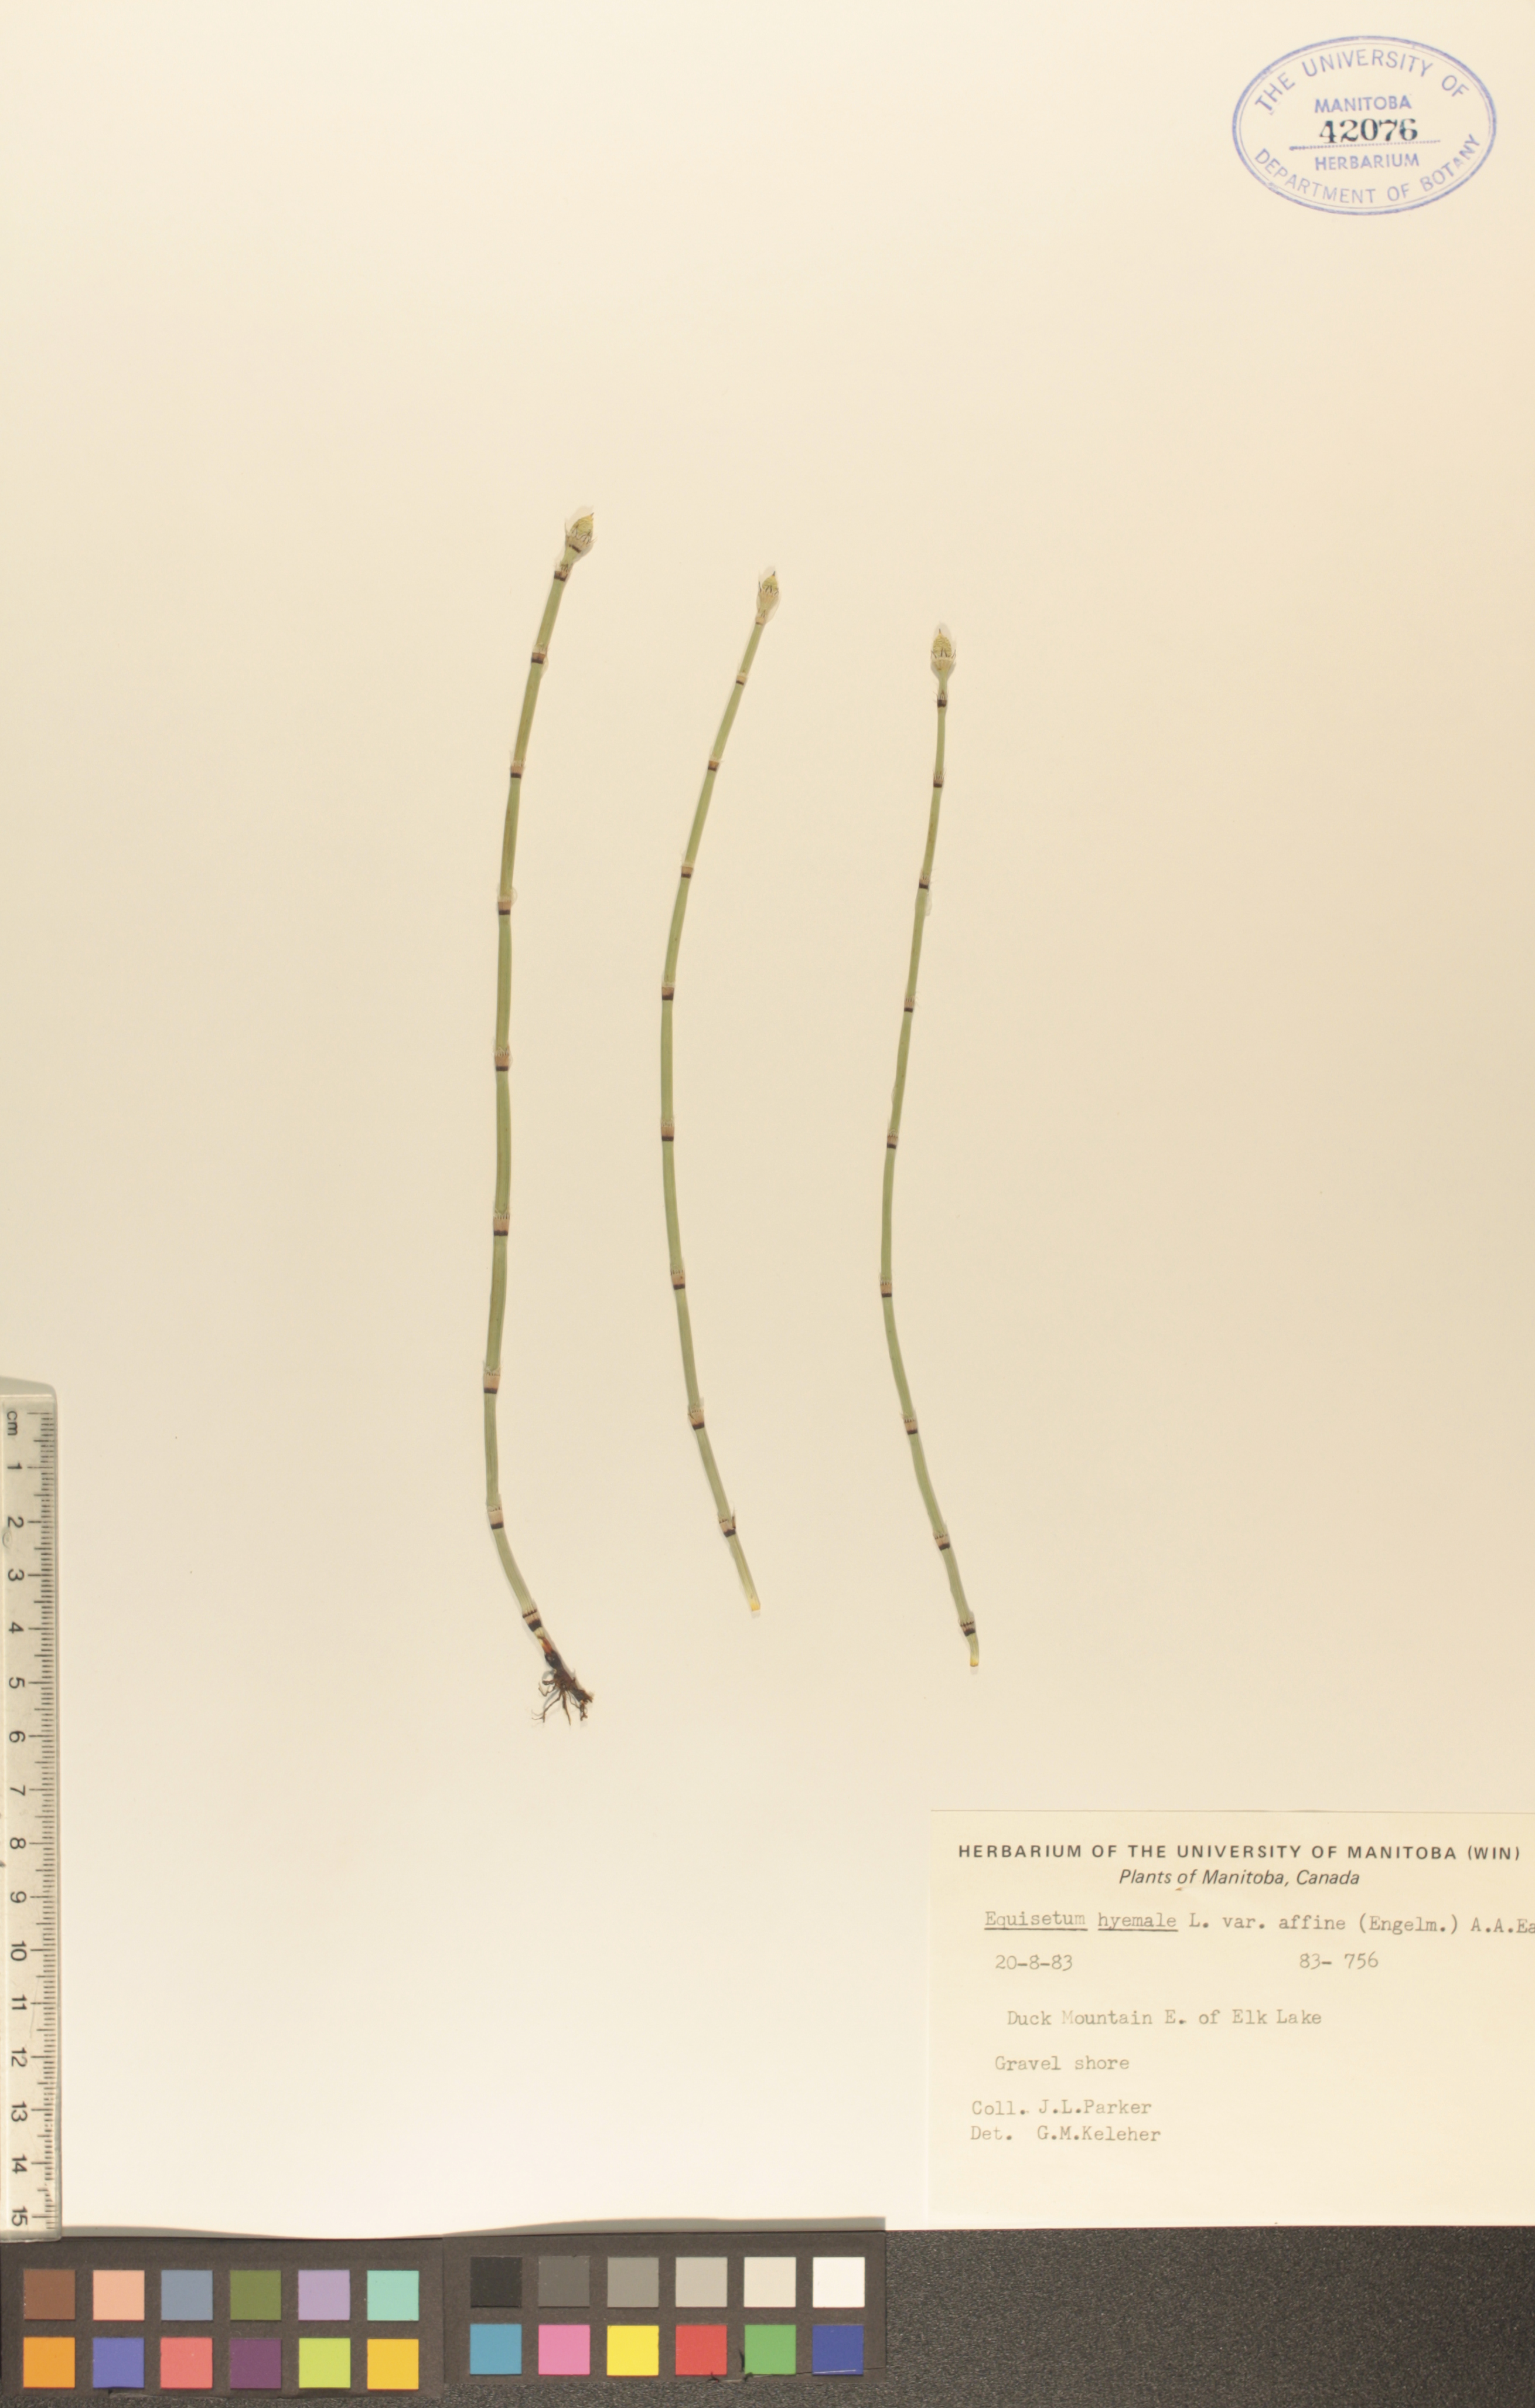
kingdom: Plantae
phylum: Tracheophyta
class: Polypodiopsida
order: Equisetales
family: Equisetaceae
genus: Equisetum
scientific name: Equisetum praealtum
